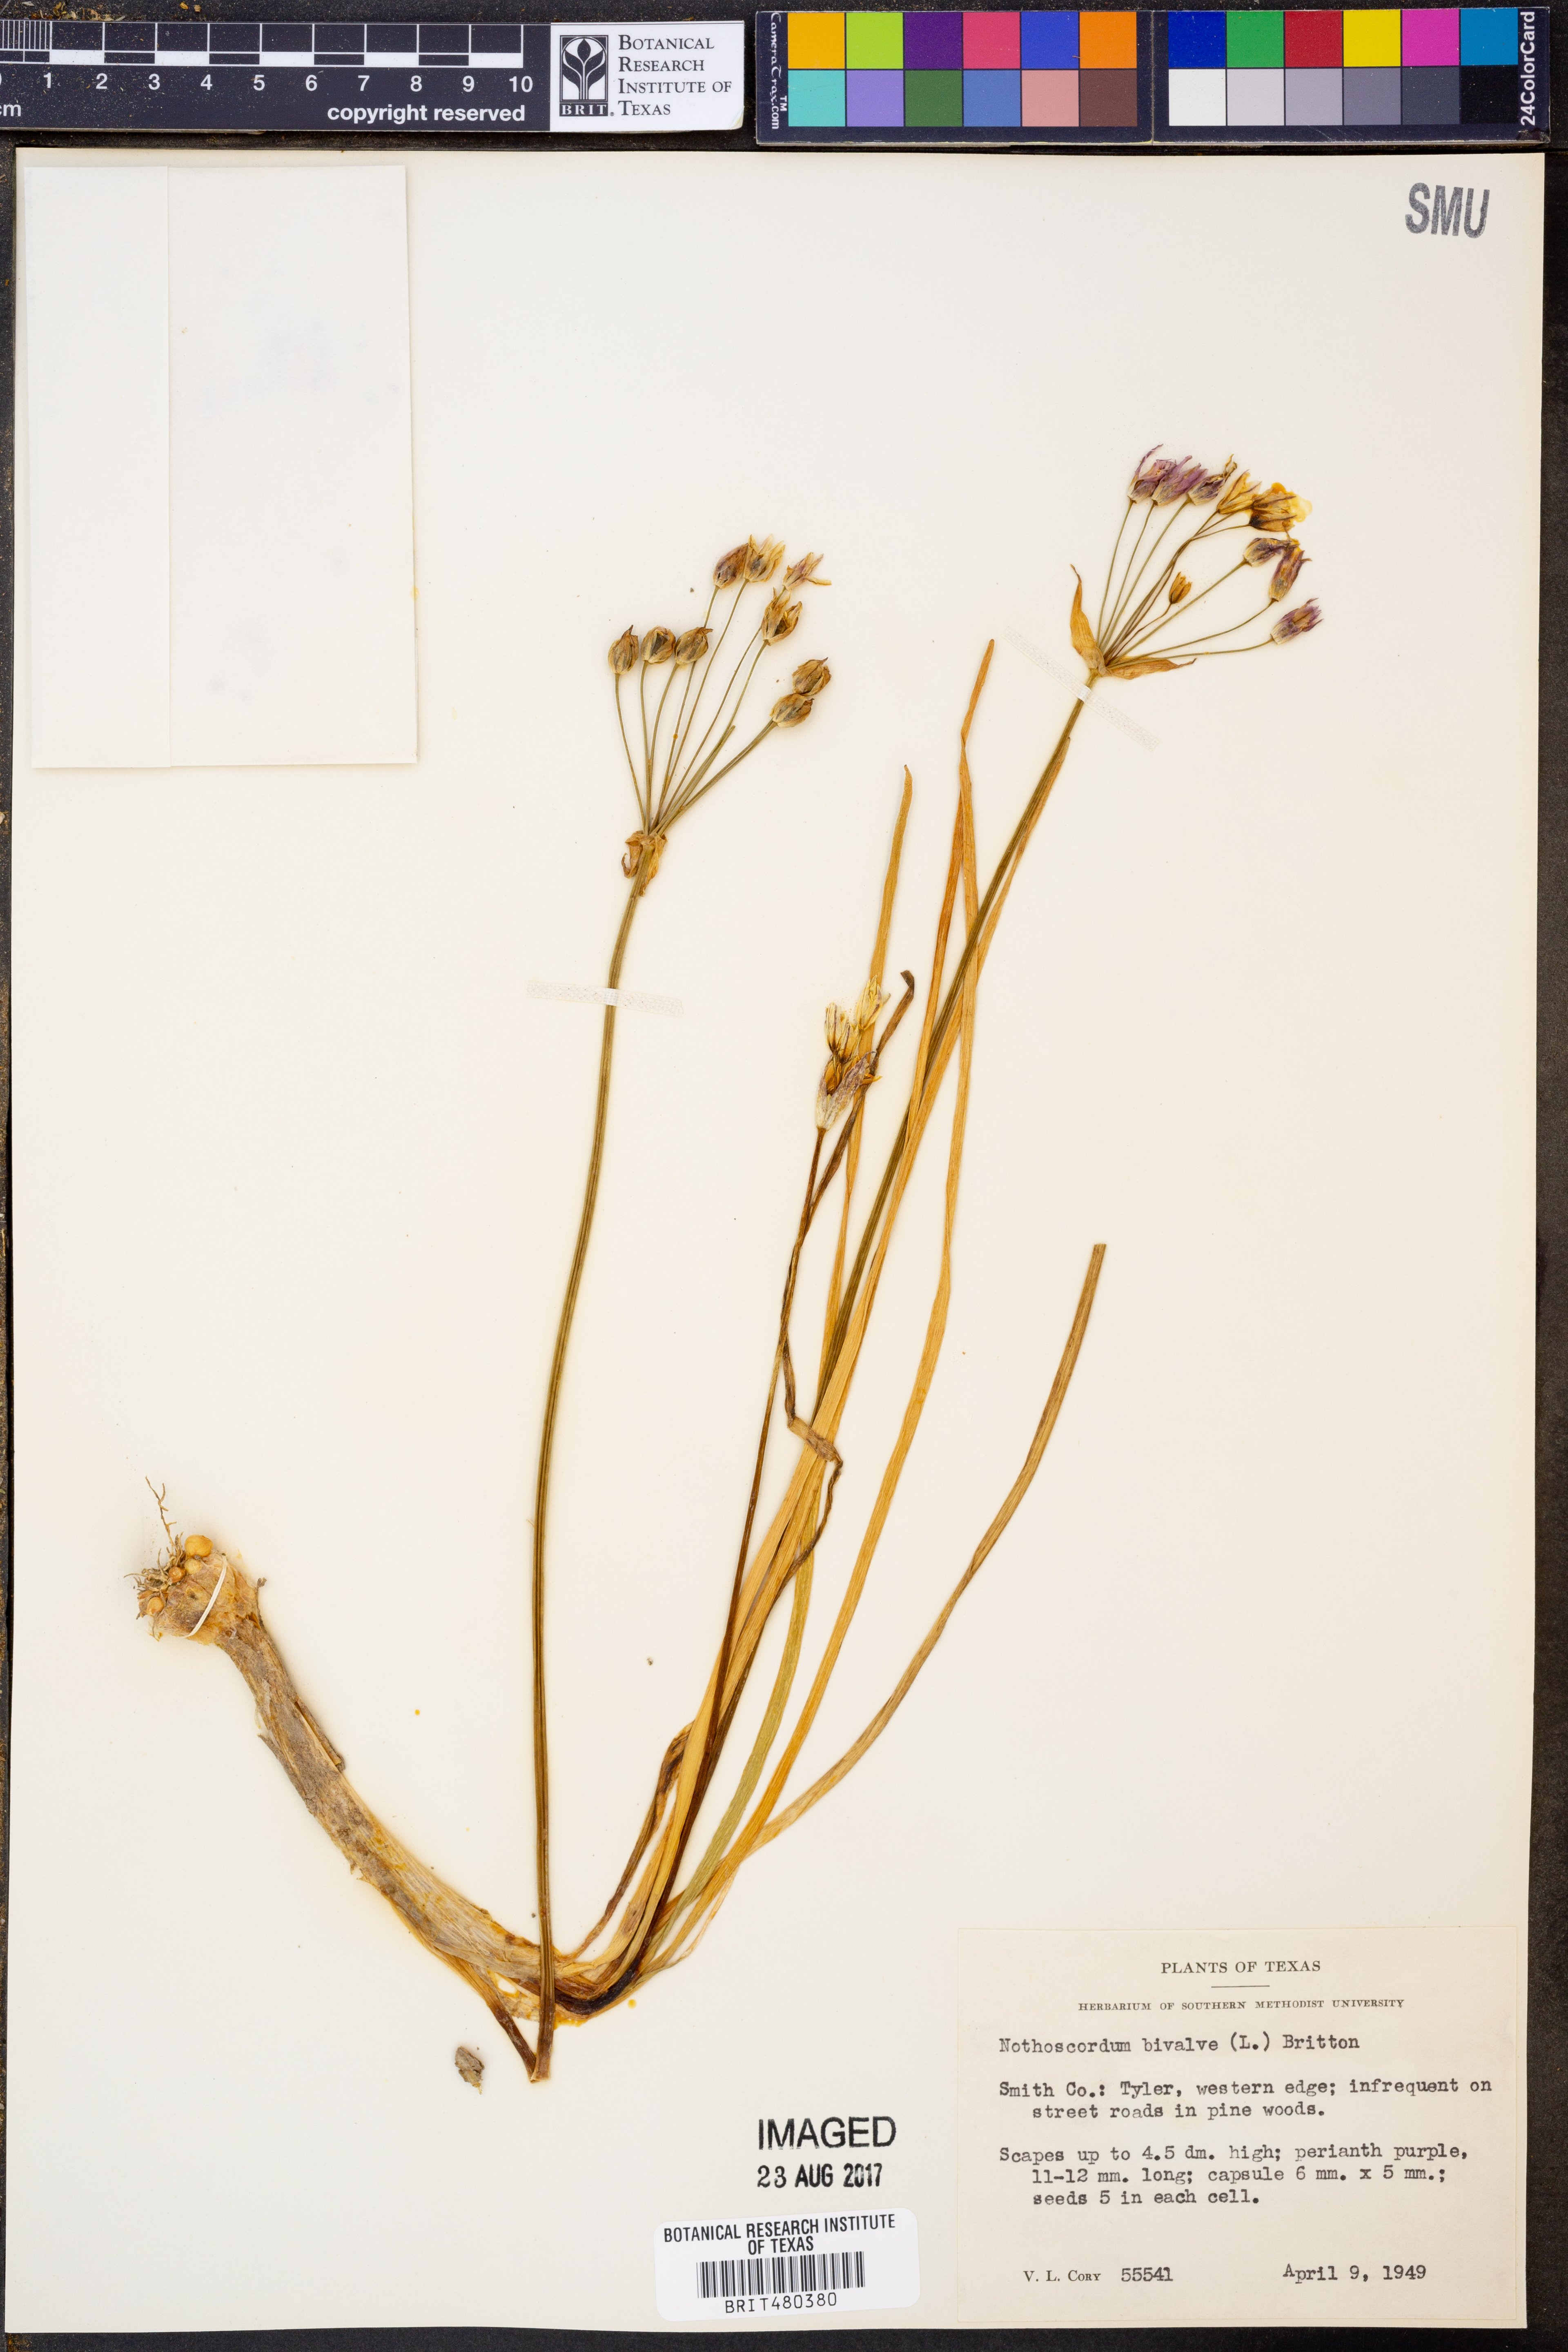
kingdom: Plantae
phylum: Tracheophyta
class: Liliopsida
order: Asparagales
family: Amaryllidaceae
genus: Nothoscordum
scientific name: Nothoscordum bivalve
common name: Crow-poison
